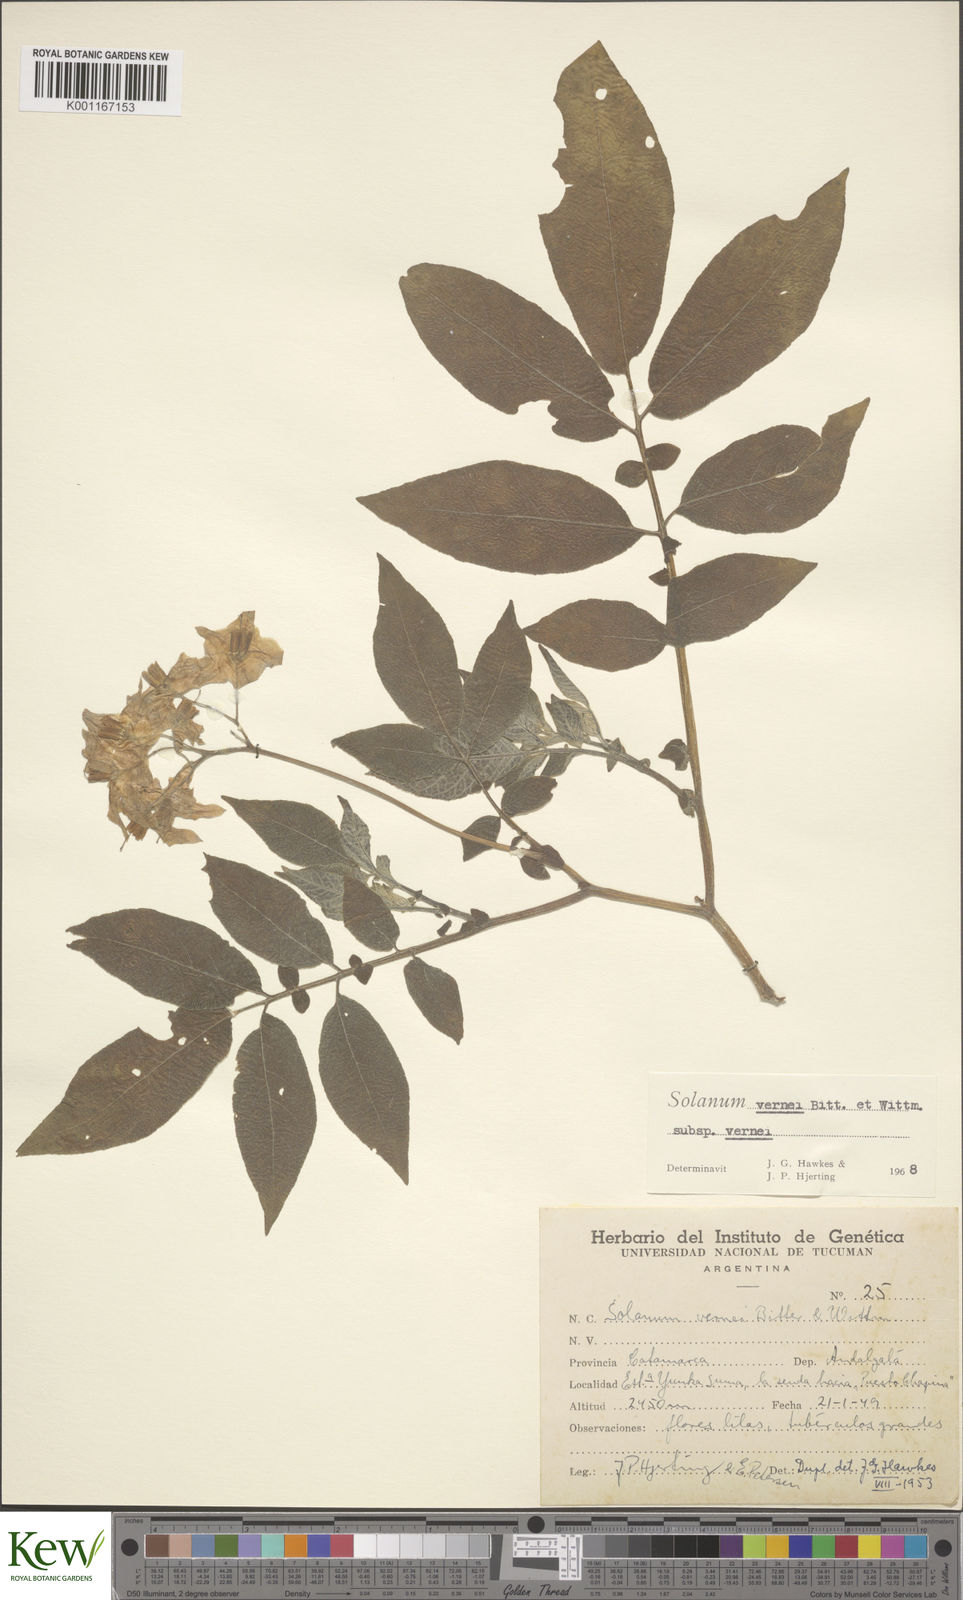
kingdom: Plantae
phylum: Tracheophyta
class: Magnoliopsida
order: Solanales
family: Solanaceae
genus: Solanum
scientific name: Solanum vernei
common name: Purple potato
